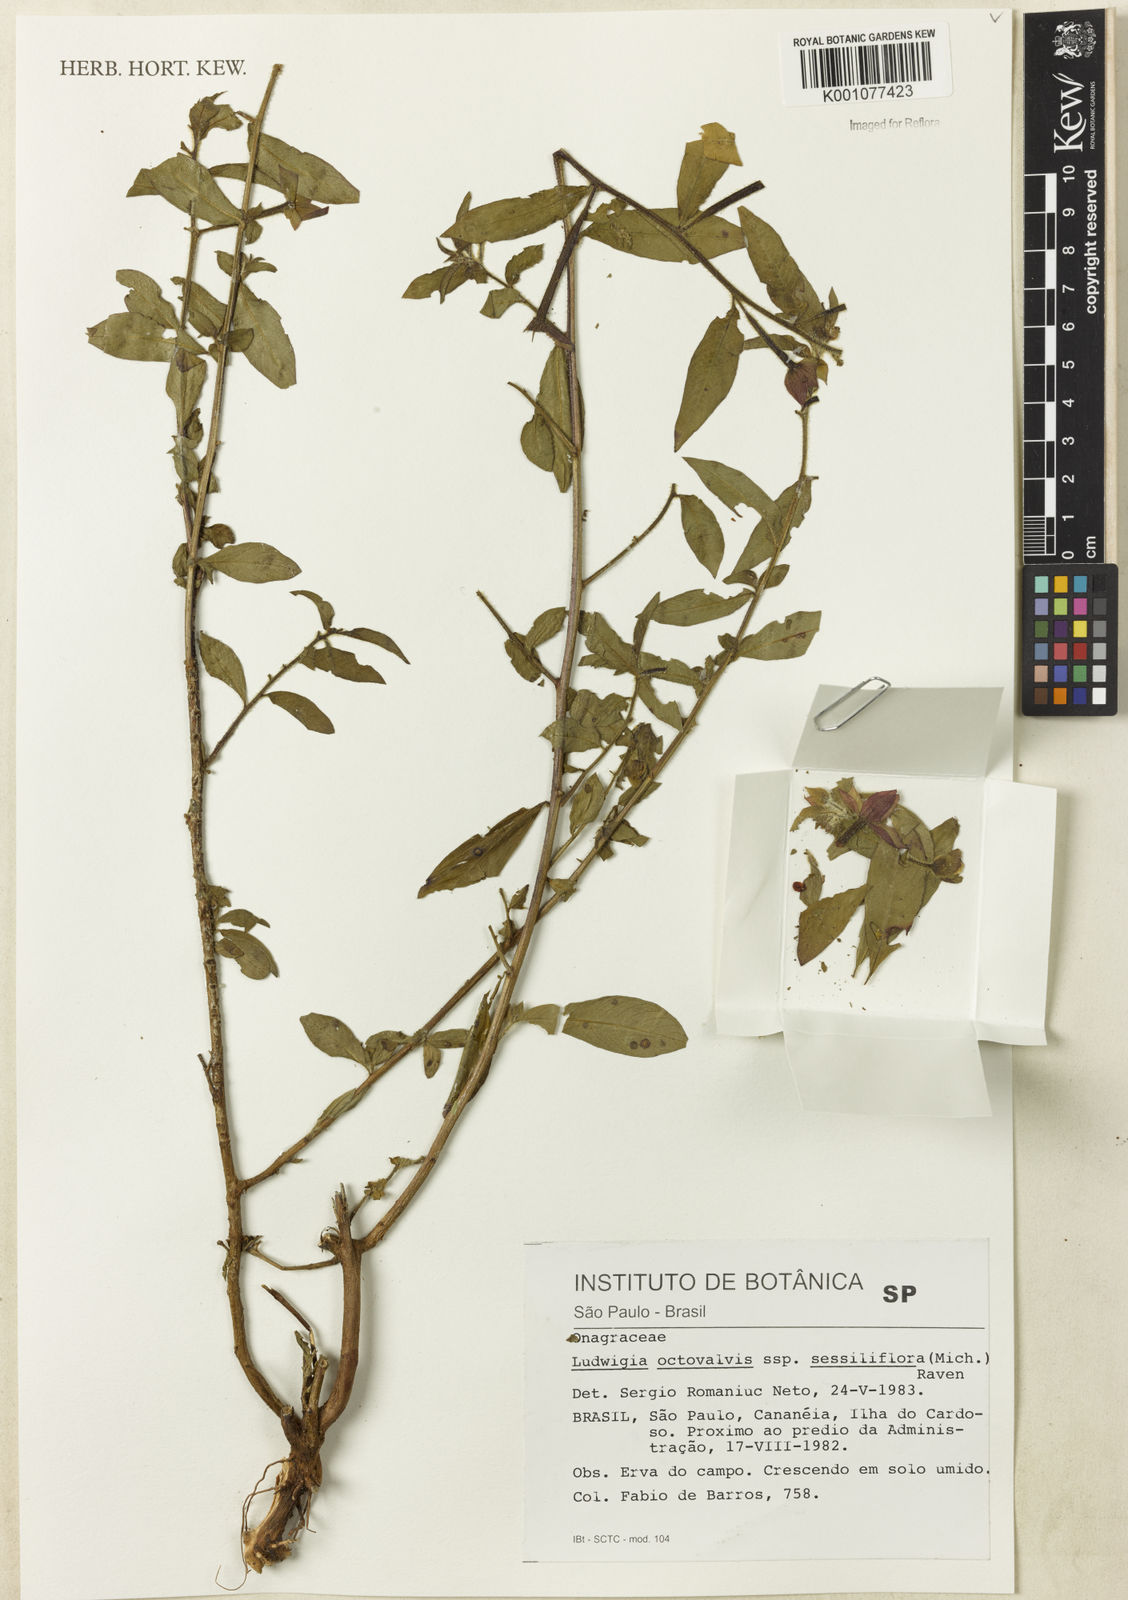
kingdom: Plantae
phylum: Tracheophyta
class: Magnoliopsida
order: Myrtales
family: Onagraceae
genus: Ludwigia
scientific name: Ludwigia octovalvis
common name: Water-primrose
